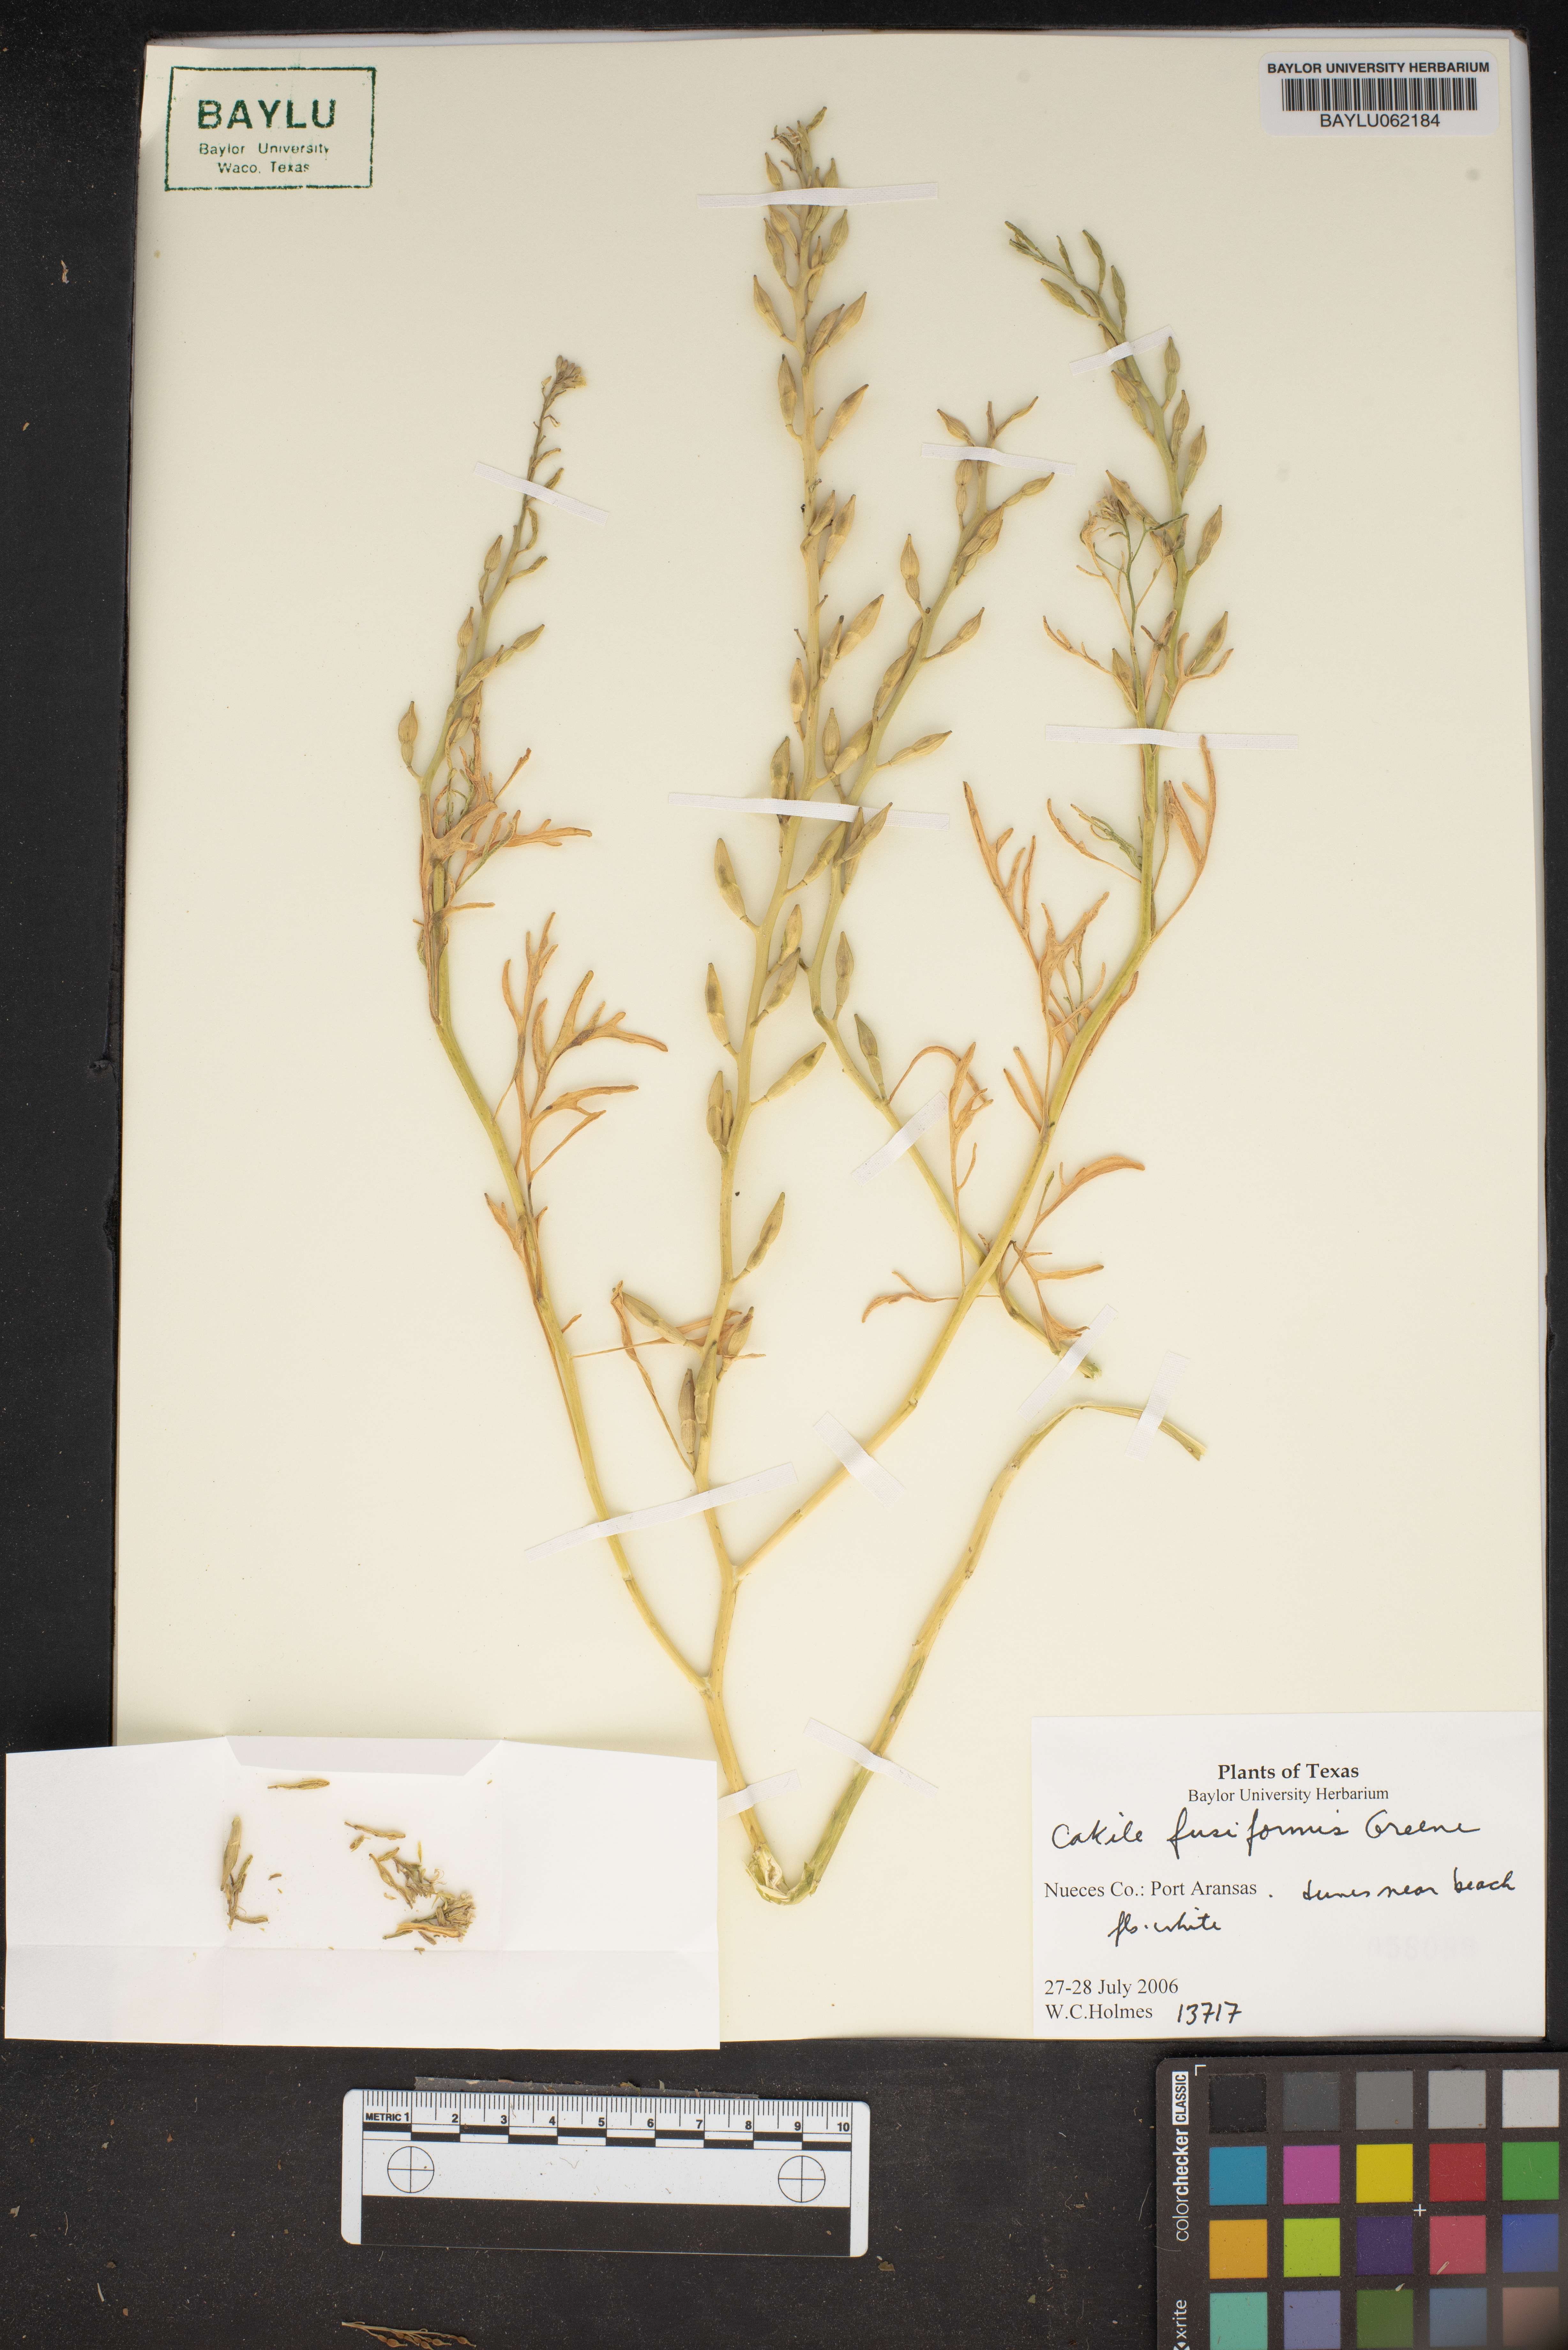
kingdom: Plantae
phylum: Tracheophyta
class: Magnoliopsida
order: Brassicales
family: Brassicaceae
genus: Cakile
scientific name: Cakile lanceolata
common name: Sea rocket
